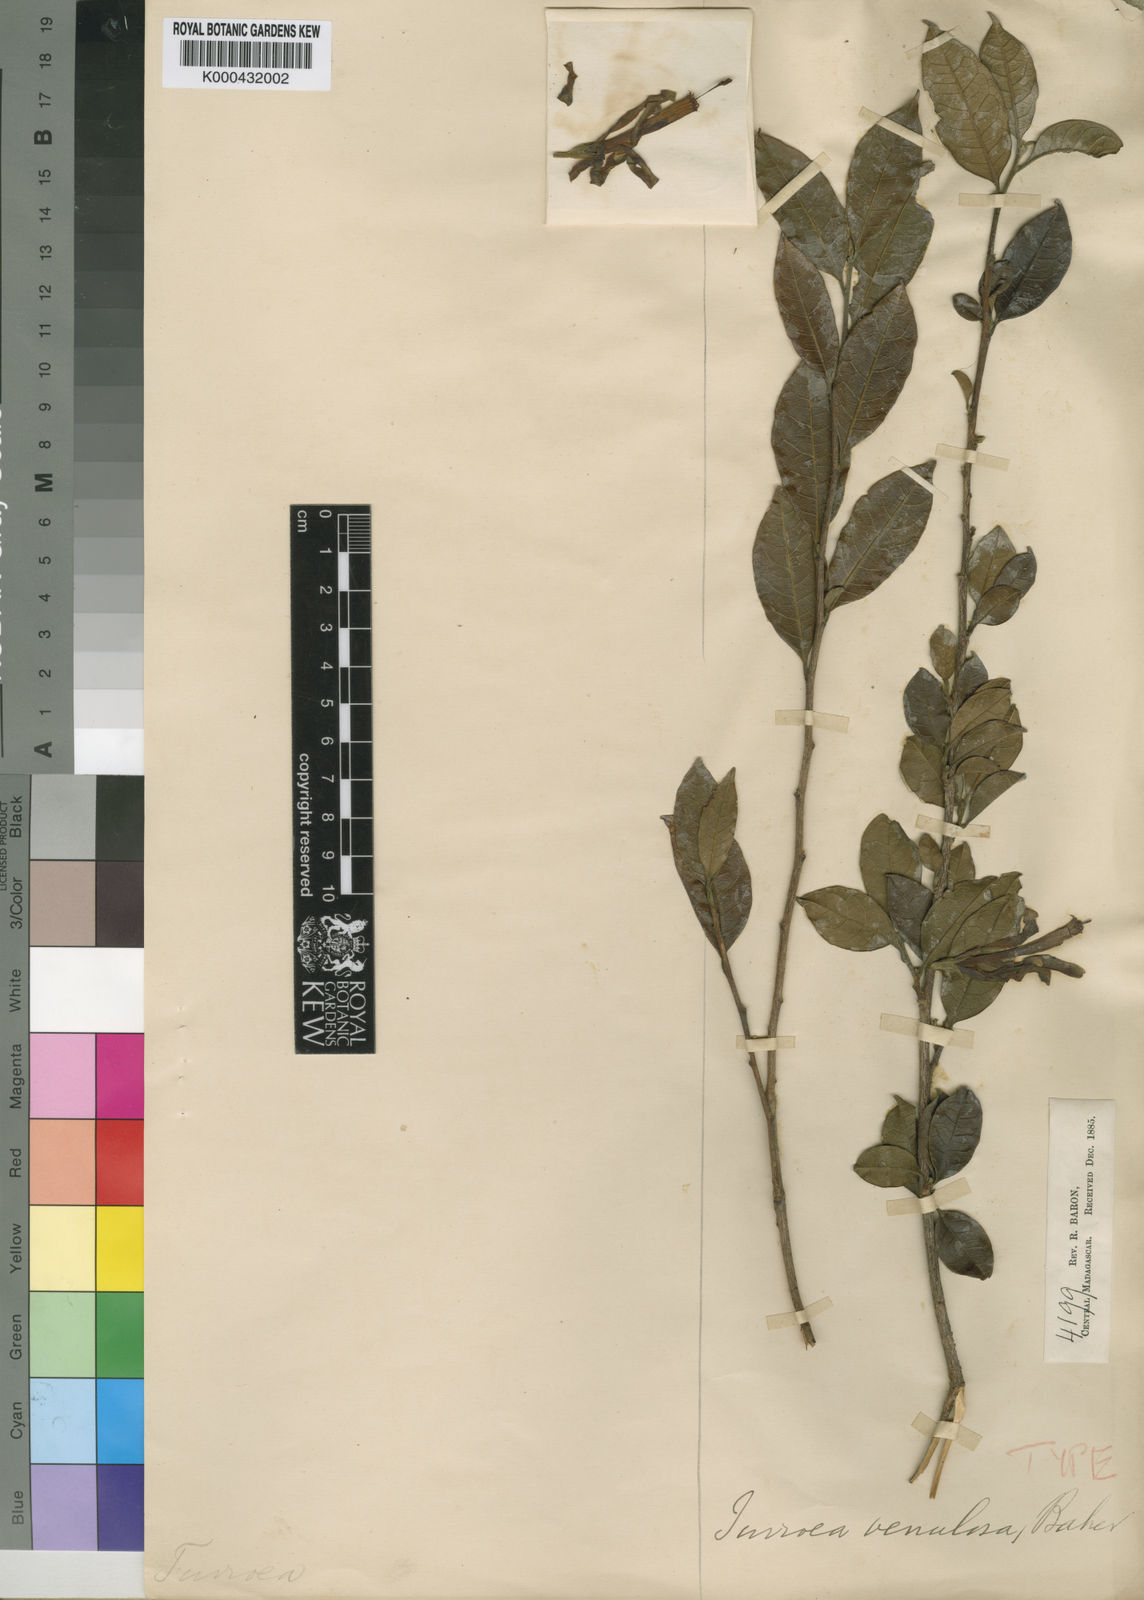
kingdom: Plantae
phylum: Tracheophyta
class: Magnoliopsida
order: Sapindales
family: Meliaceae
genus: Turraea
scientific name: Turraea venulosa
